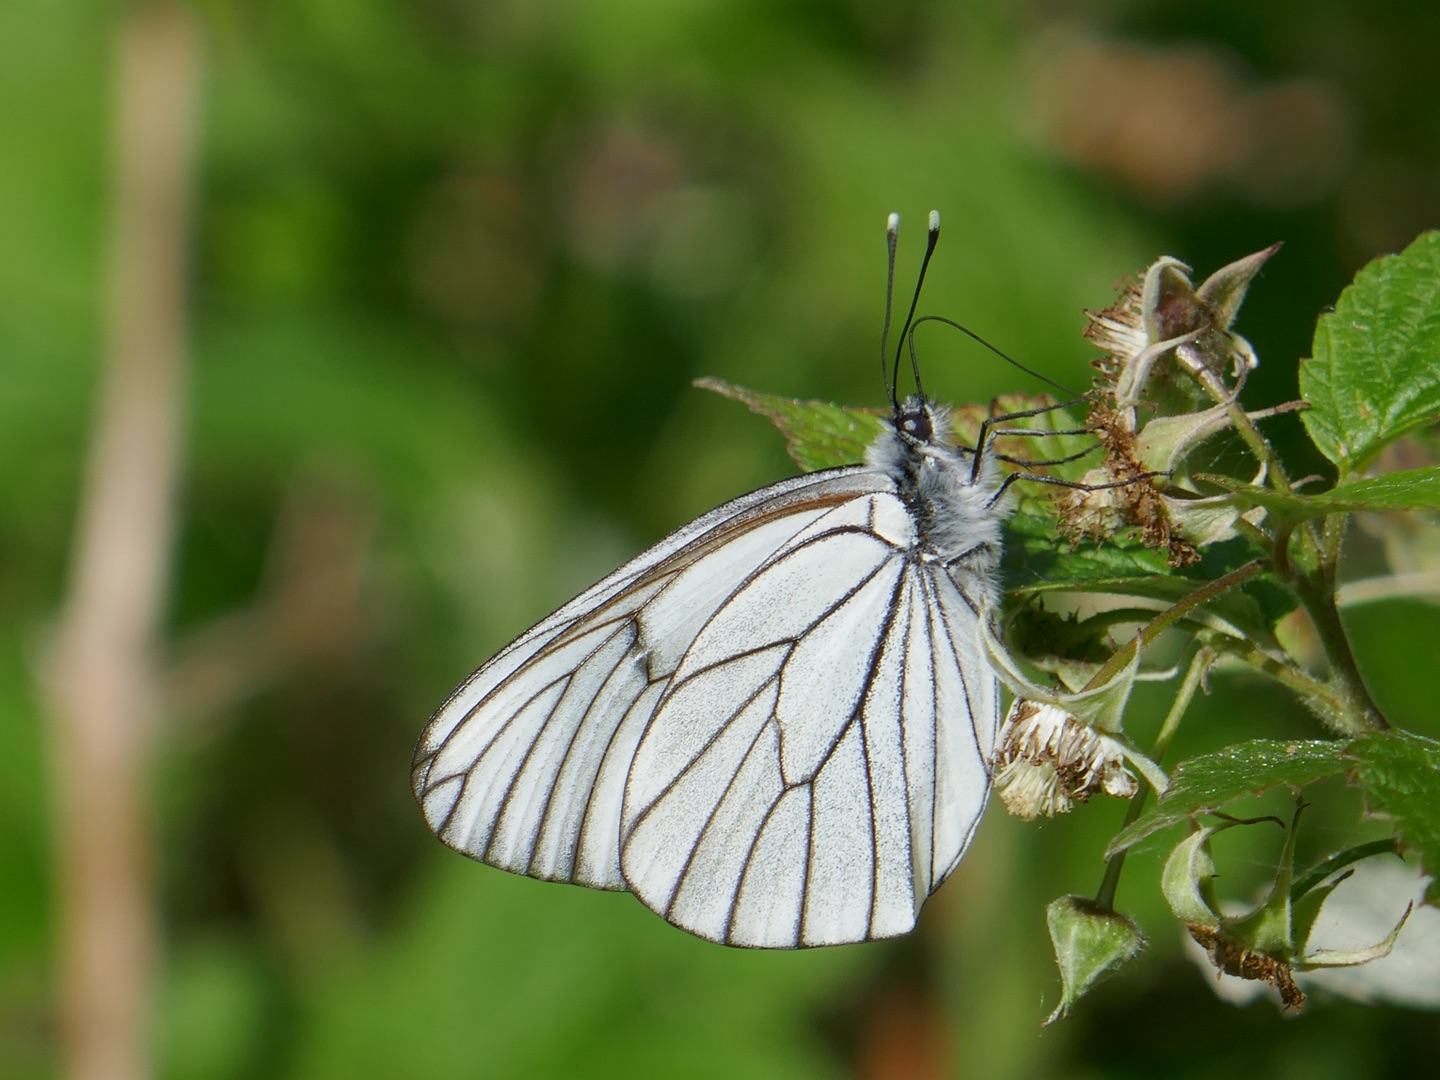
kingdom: Animalia
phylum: Arthropoda
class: Insecta
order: Lepidoptera
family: Pieridae
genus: Aporia
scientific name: Aporia crataegi
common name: Sortåret hvidvinge
